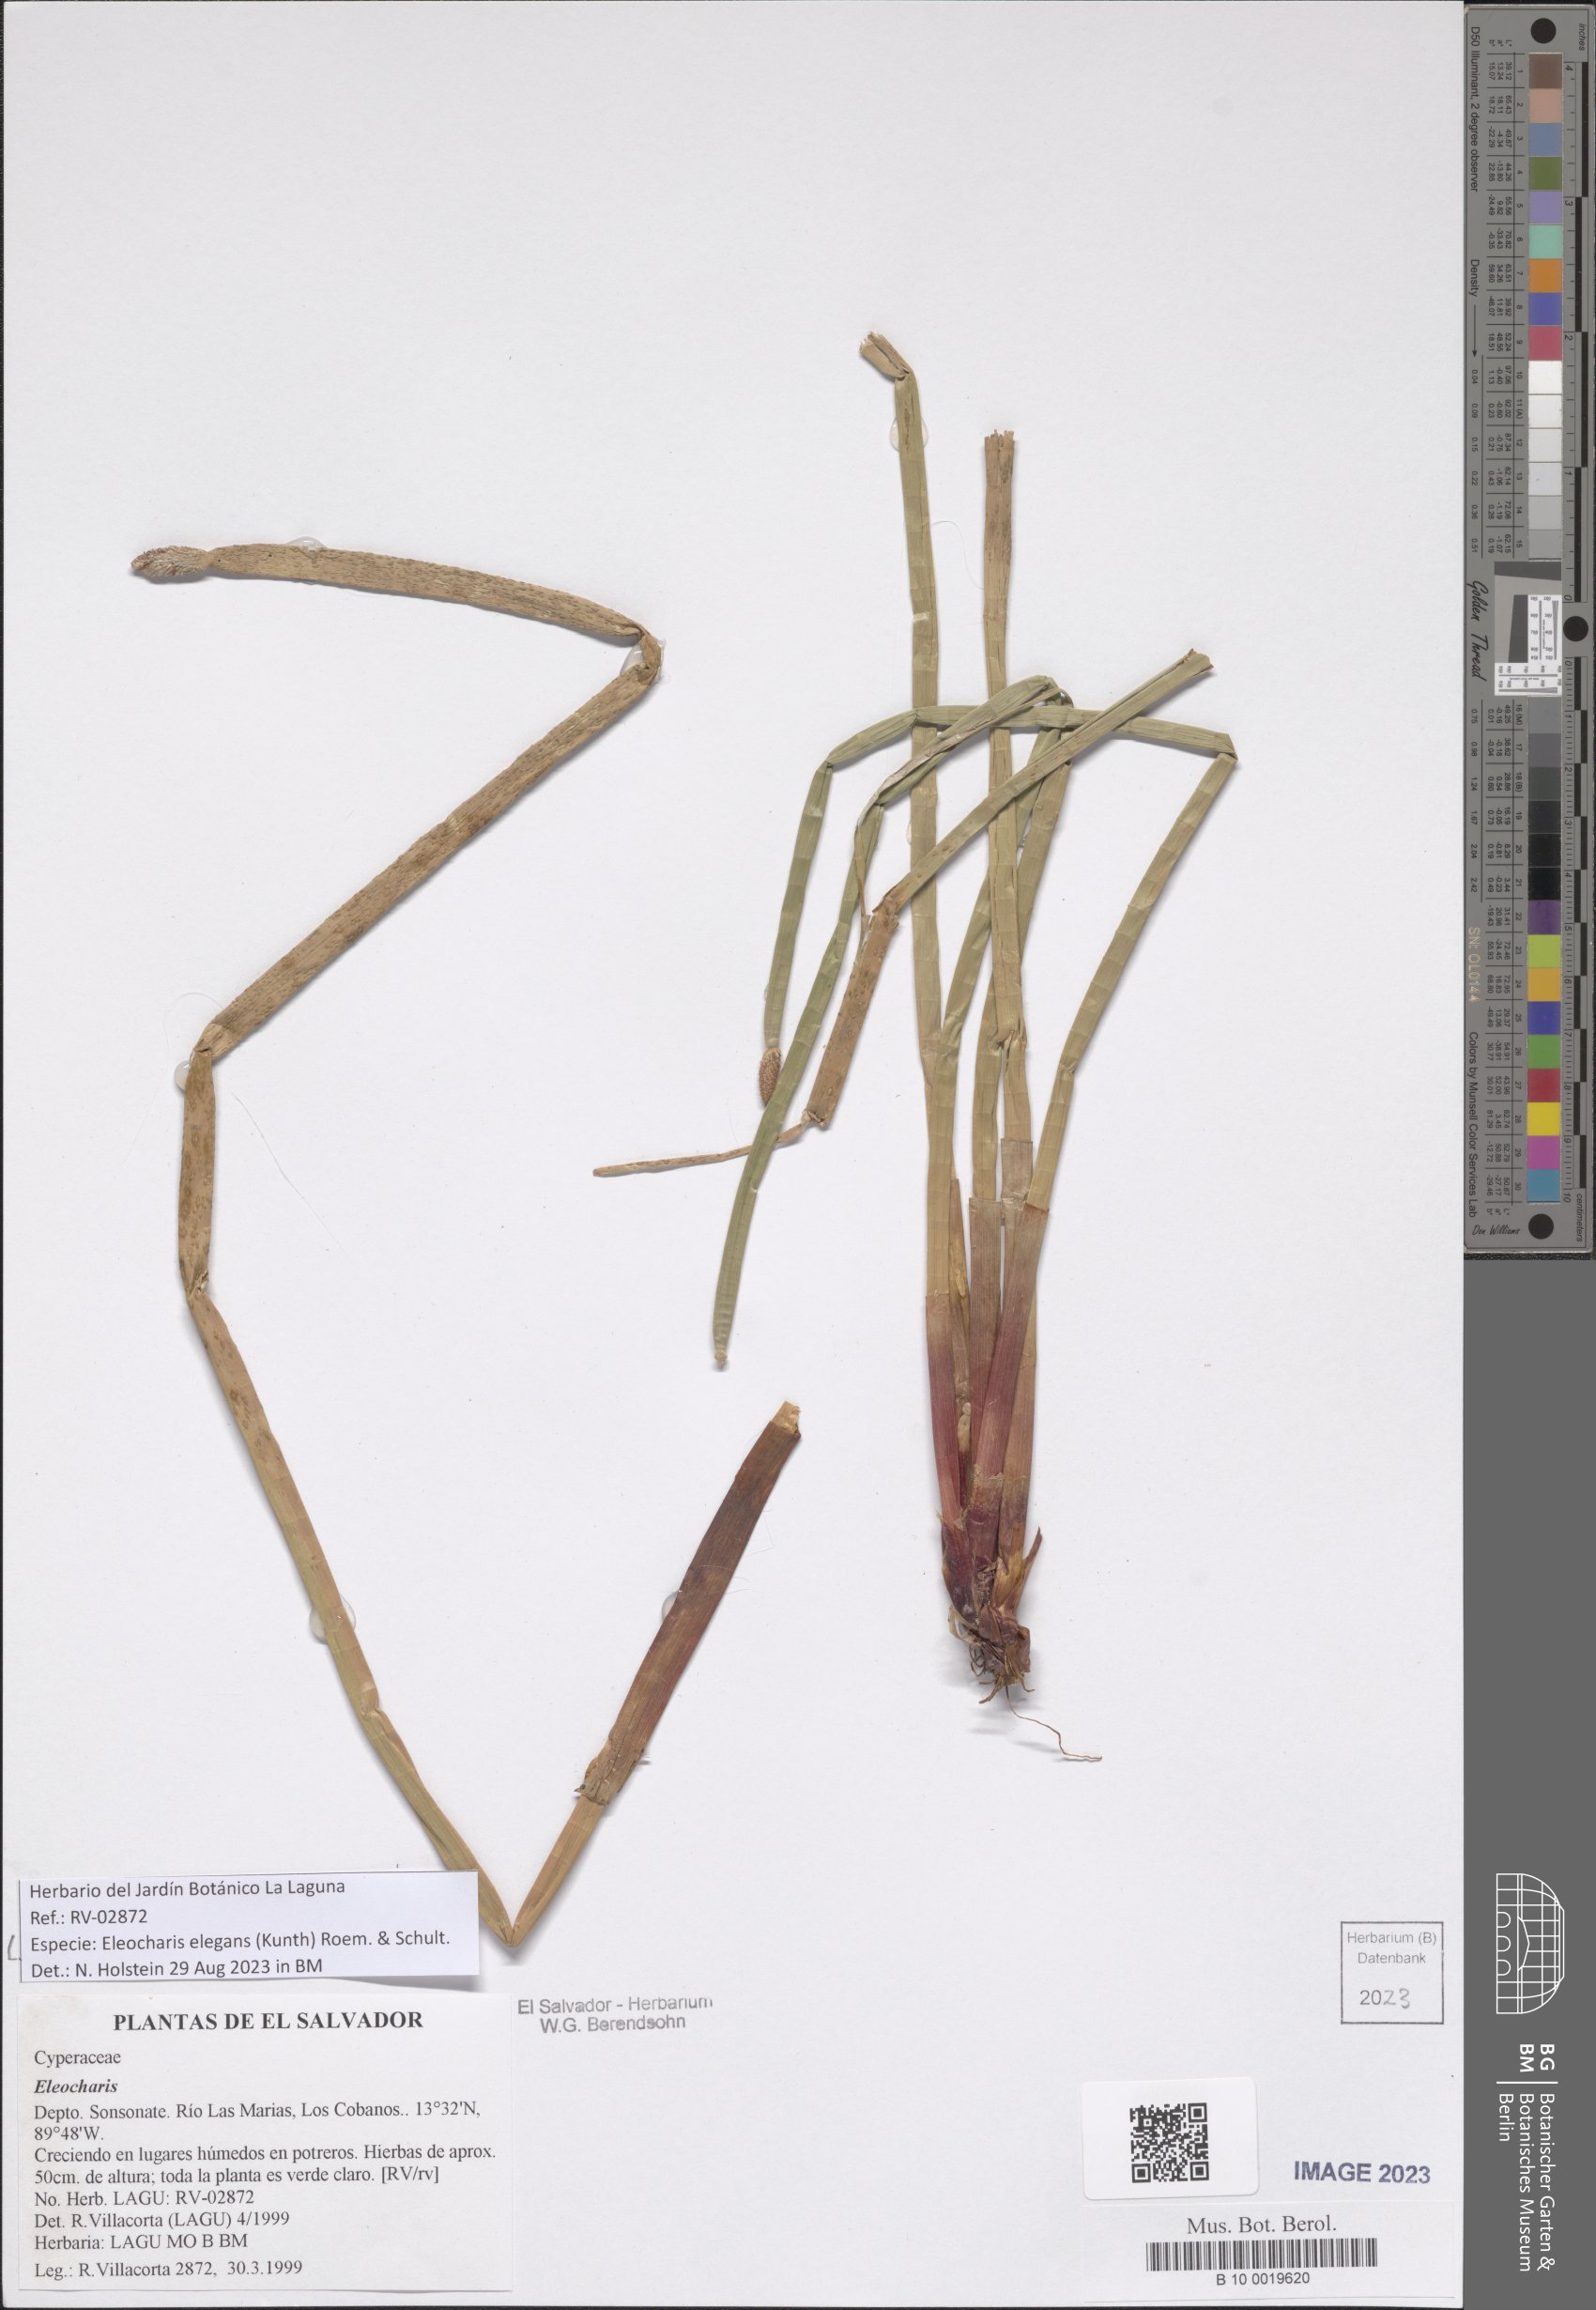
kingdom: Plantae
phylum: Tracheophyta
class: Liliopsida
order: Poales
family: Cyperaceae
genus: Eleocharis
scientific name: Eleocharis elegans
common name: Elegant spike-rush
